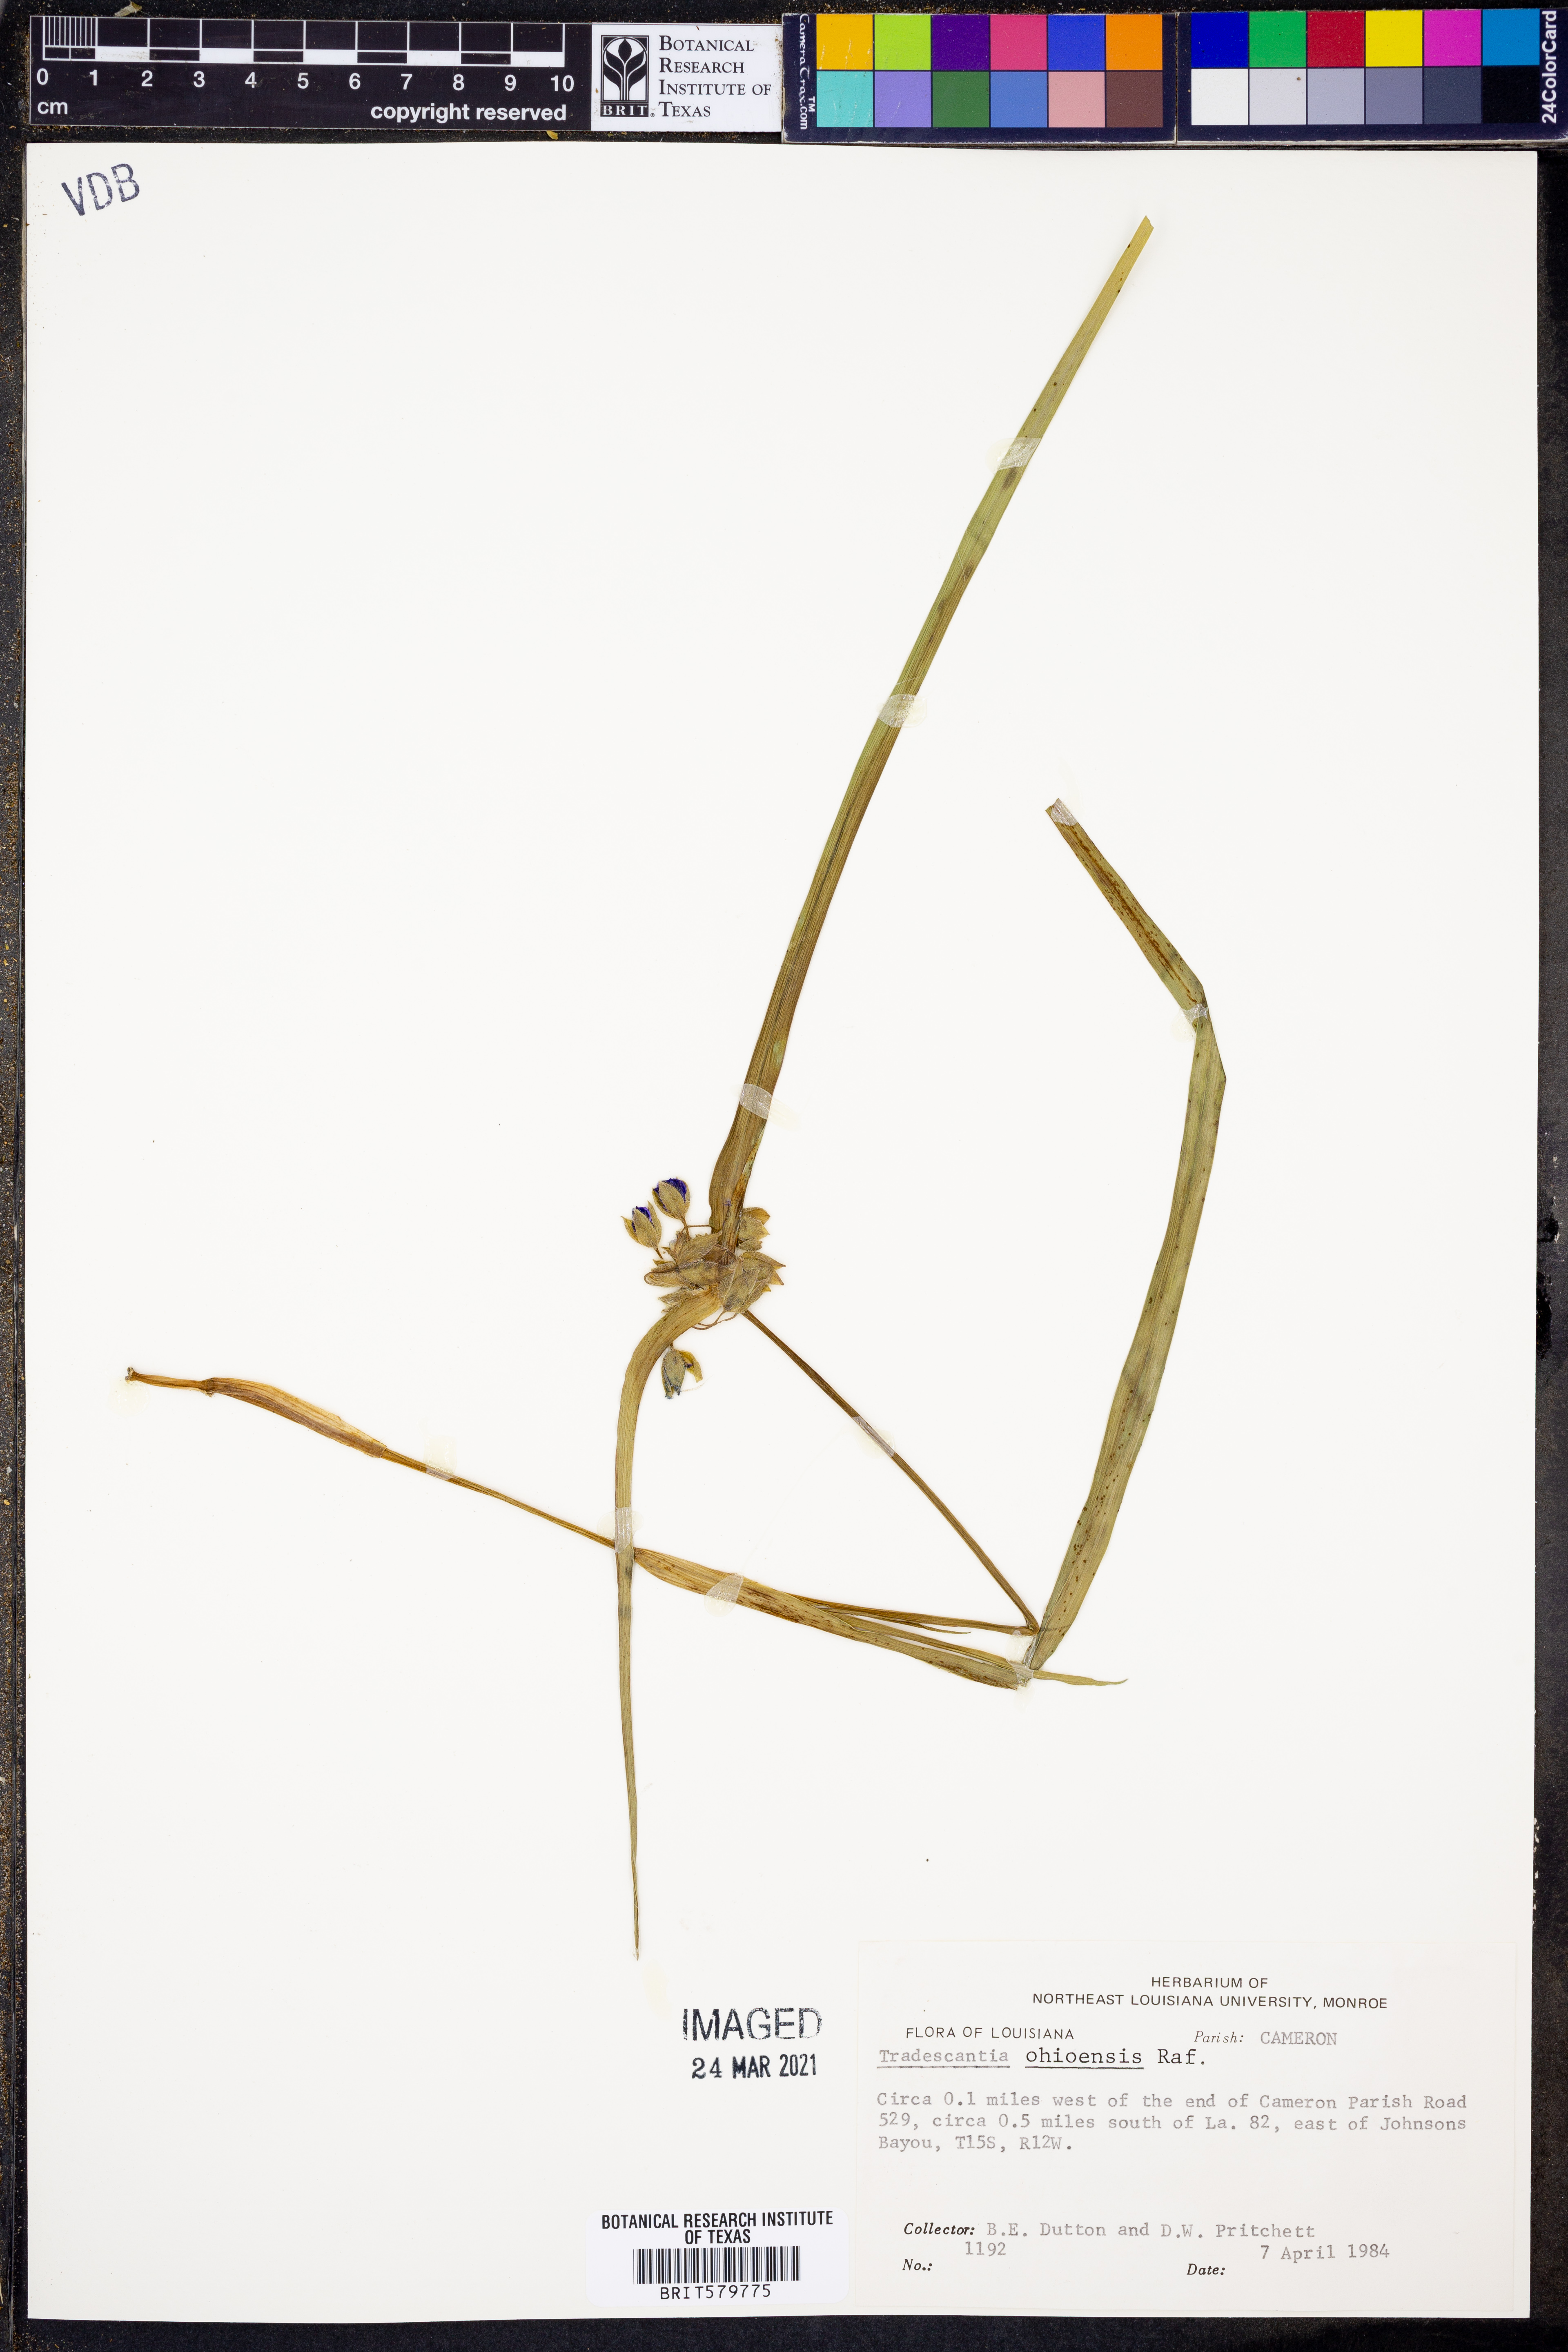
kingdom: Plantae
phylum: Tracheophyta
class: Liliopsida
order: Commelinales
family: Commelinaceae
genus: Tradescantia
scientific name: Tradescantia ohiensis
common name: Ohio spiderwort
